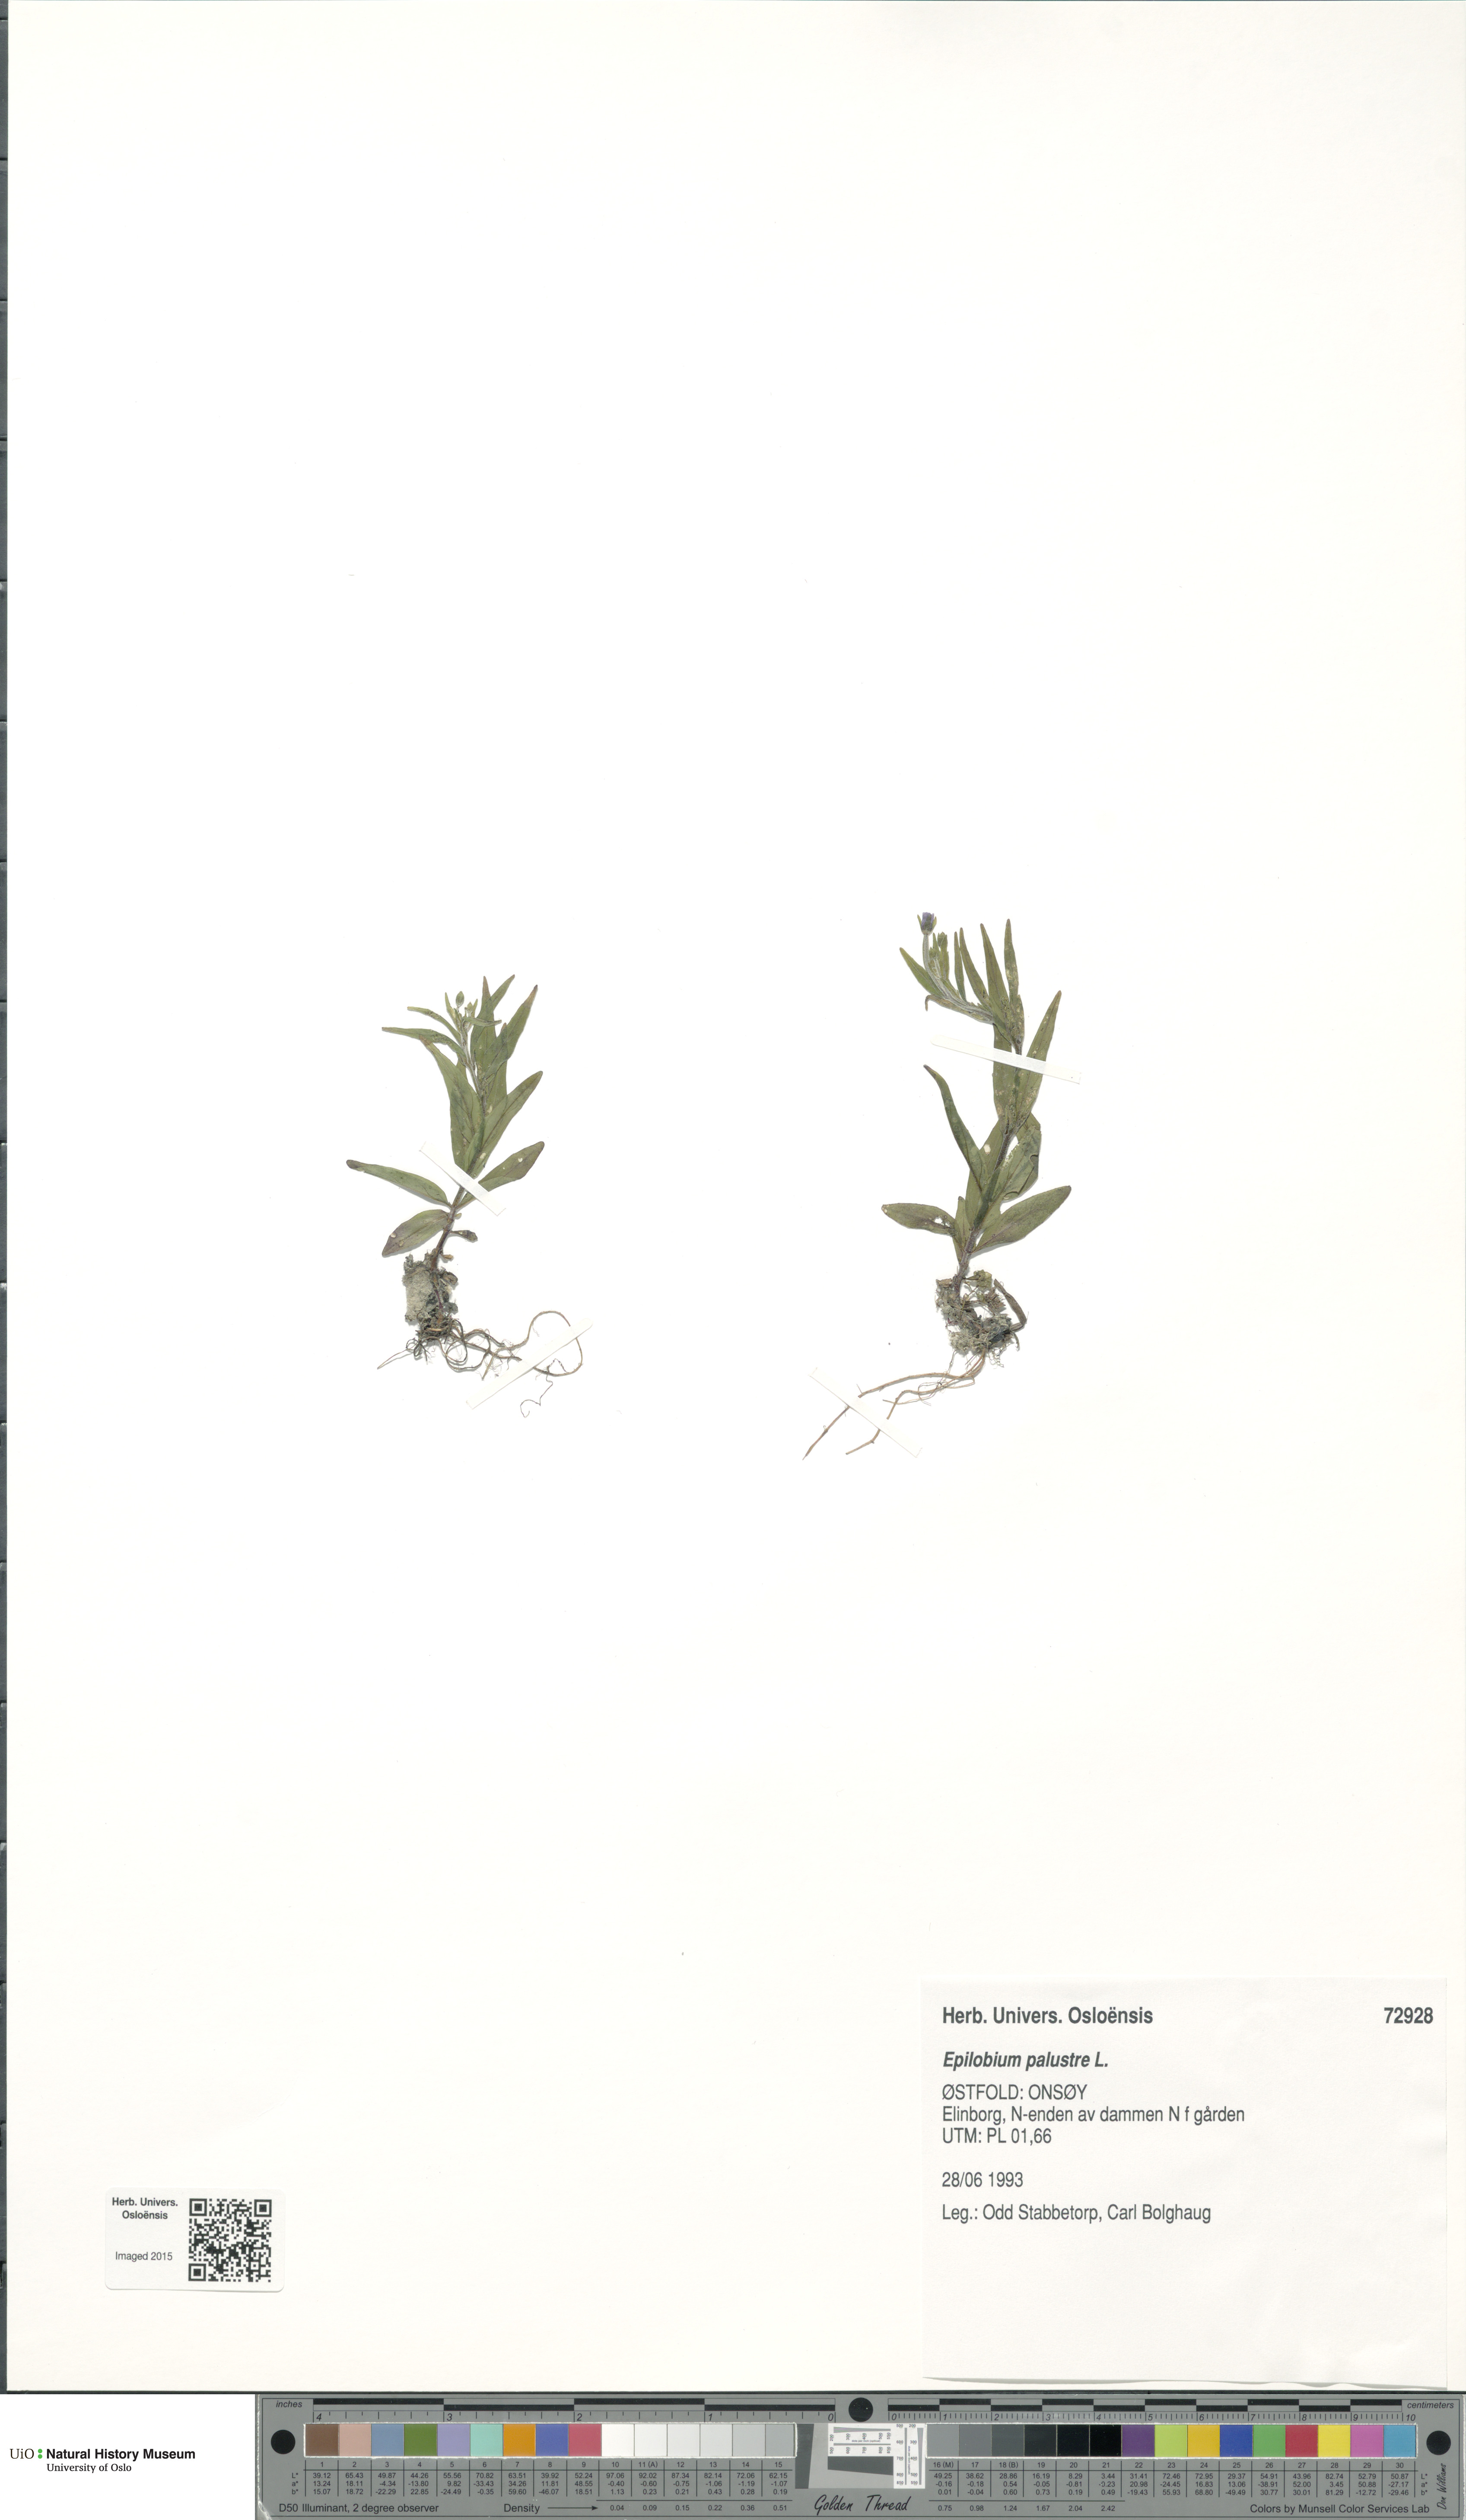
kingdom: Plantae
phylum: Tracheophyta
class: Magnoliopsida
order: Myrtales
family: Onagraceae
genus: Epilobium
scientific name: Epilobium palustre
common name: Marsh willowherb
